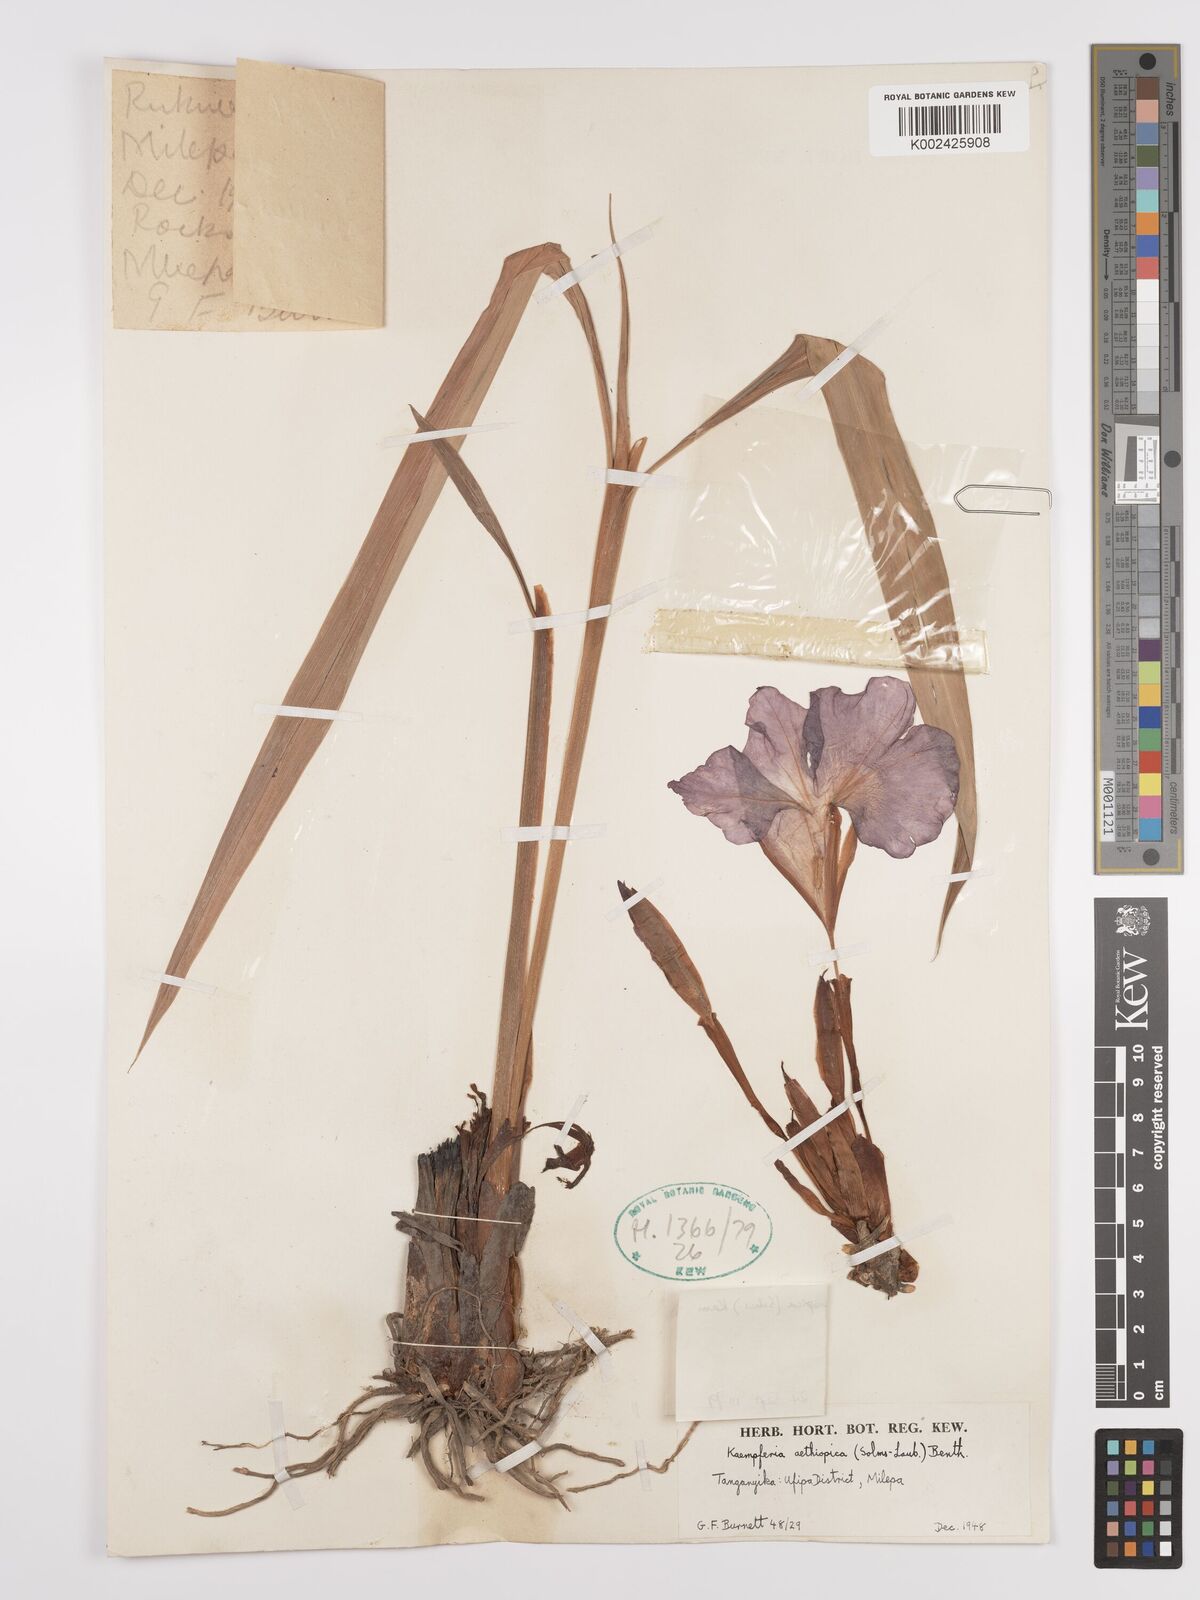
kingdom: Plantae
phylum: Tracheophyta
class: Liliopsida
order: Zingiberales
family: Zingiberaceae
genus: Siphonochilus
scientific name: Siphonochilus aethiopicus
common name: African-ginger
